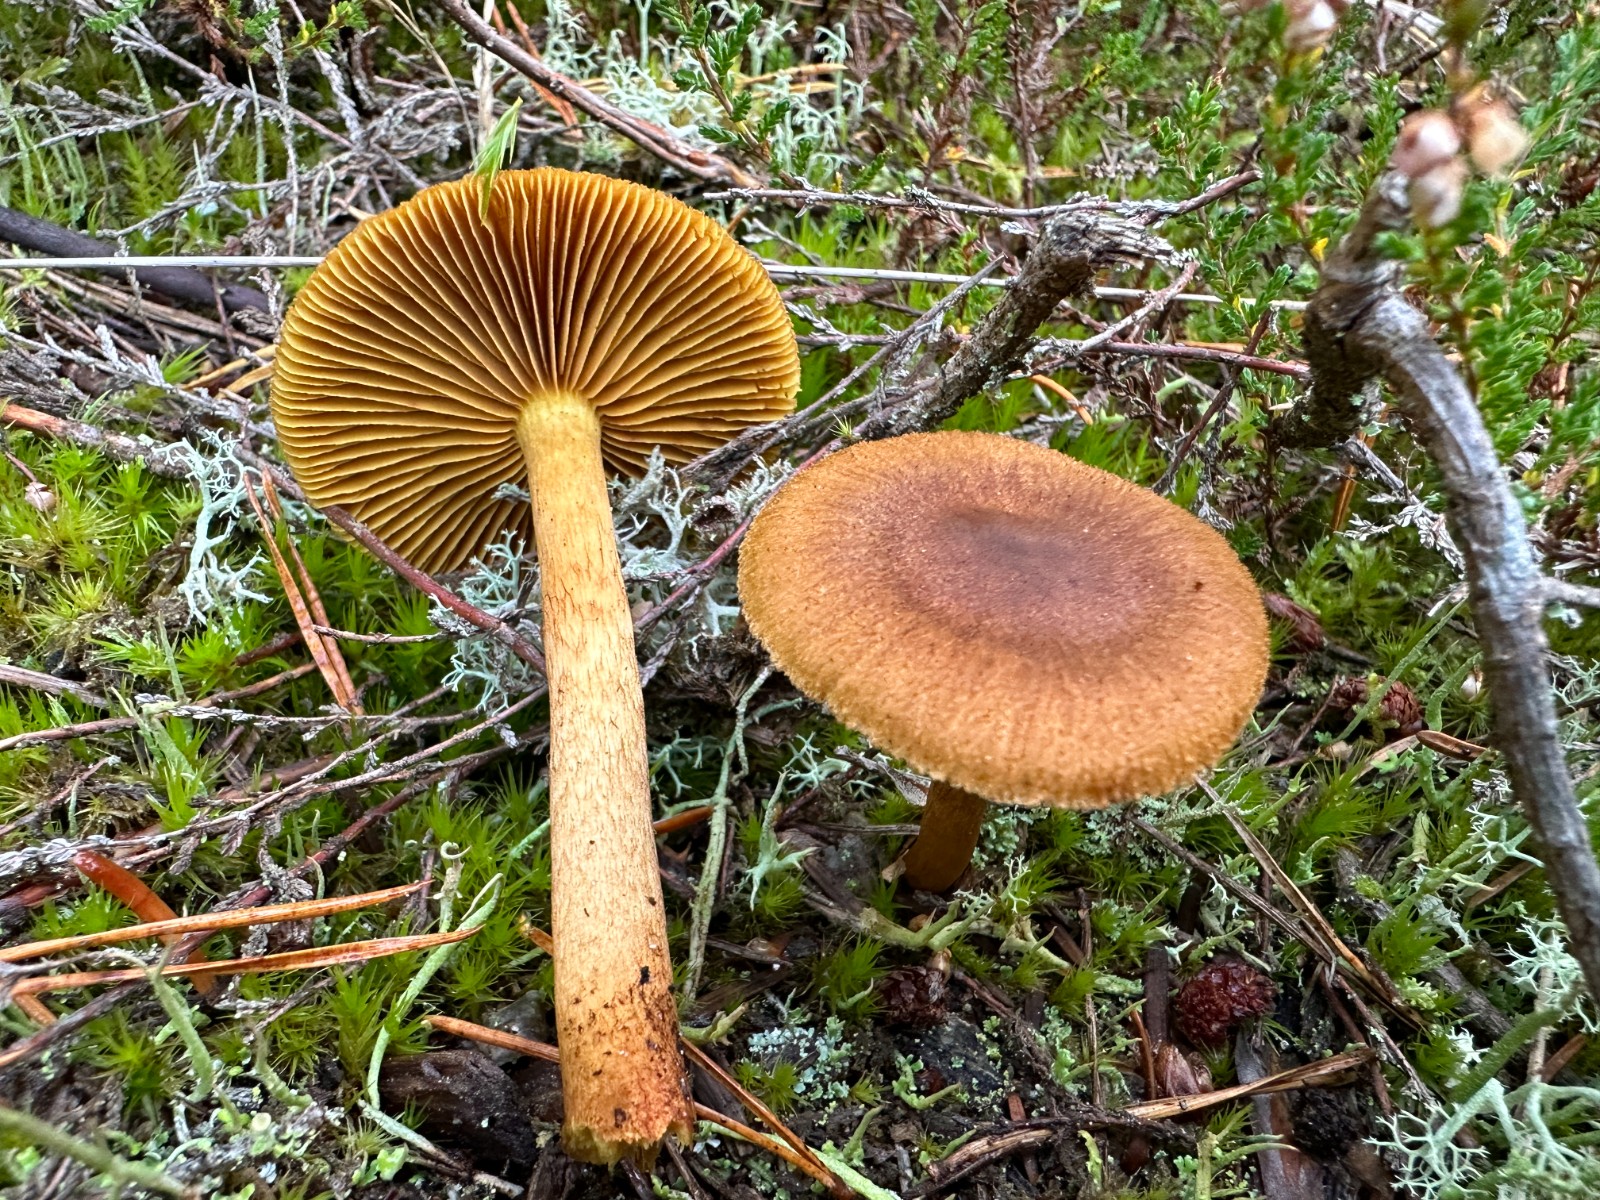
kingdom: Fungi
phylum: Basidiomycota
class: Agaricomycetes
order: Agaricales
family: Cortinariaceae
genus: Cortinarius
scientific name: Cortinarius
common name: gulbladet slørhat
